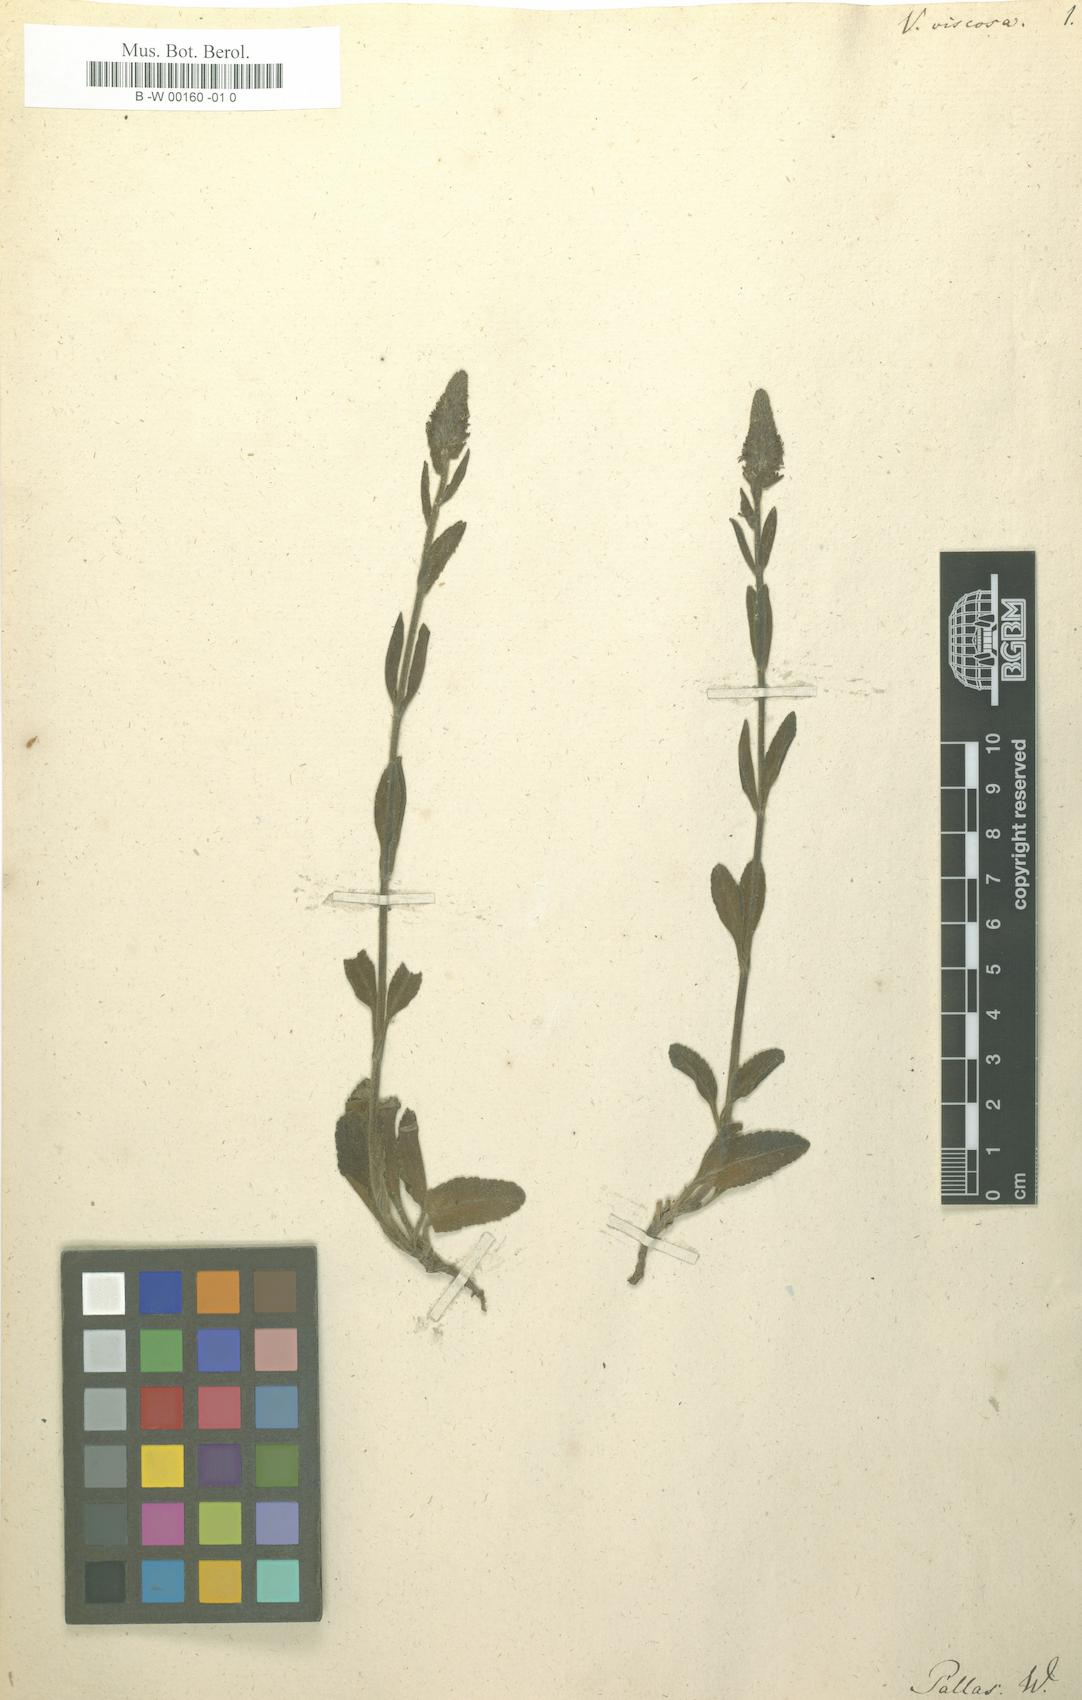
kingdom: Plantae
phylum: Tracheophyta
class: Magnoliopsida
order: Lamiales
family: Plantaginaceae
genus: Veronica
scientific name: Veronica spicata
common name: Spiked speedwell
